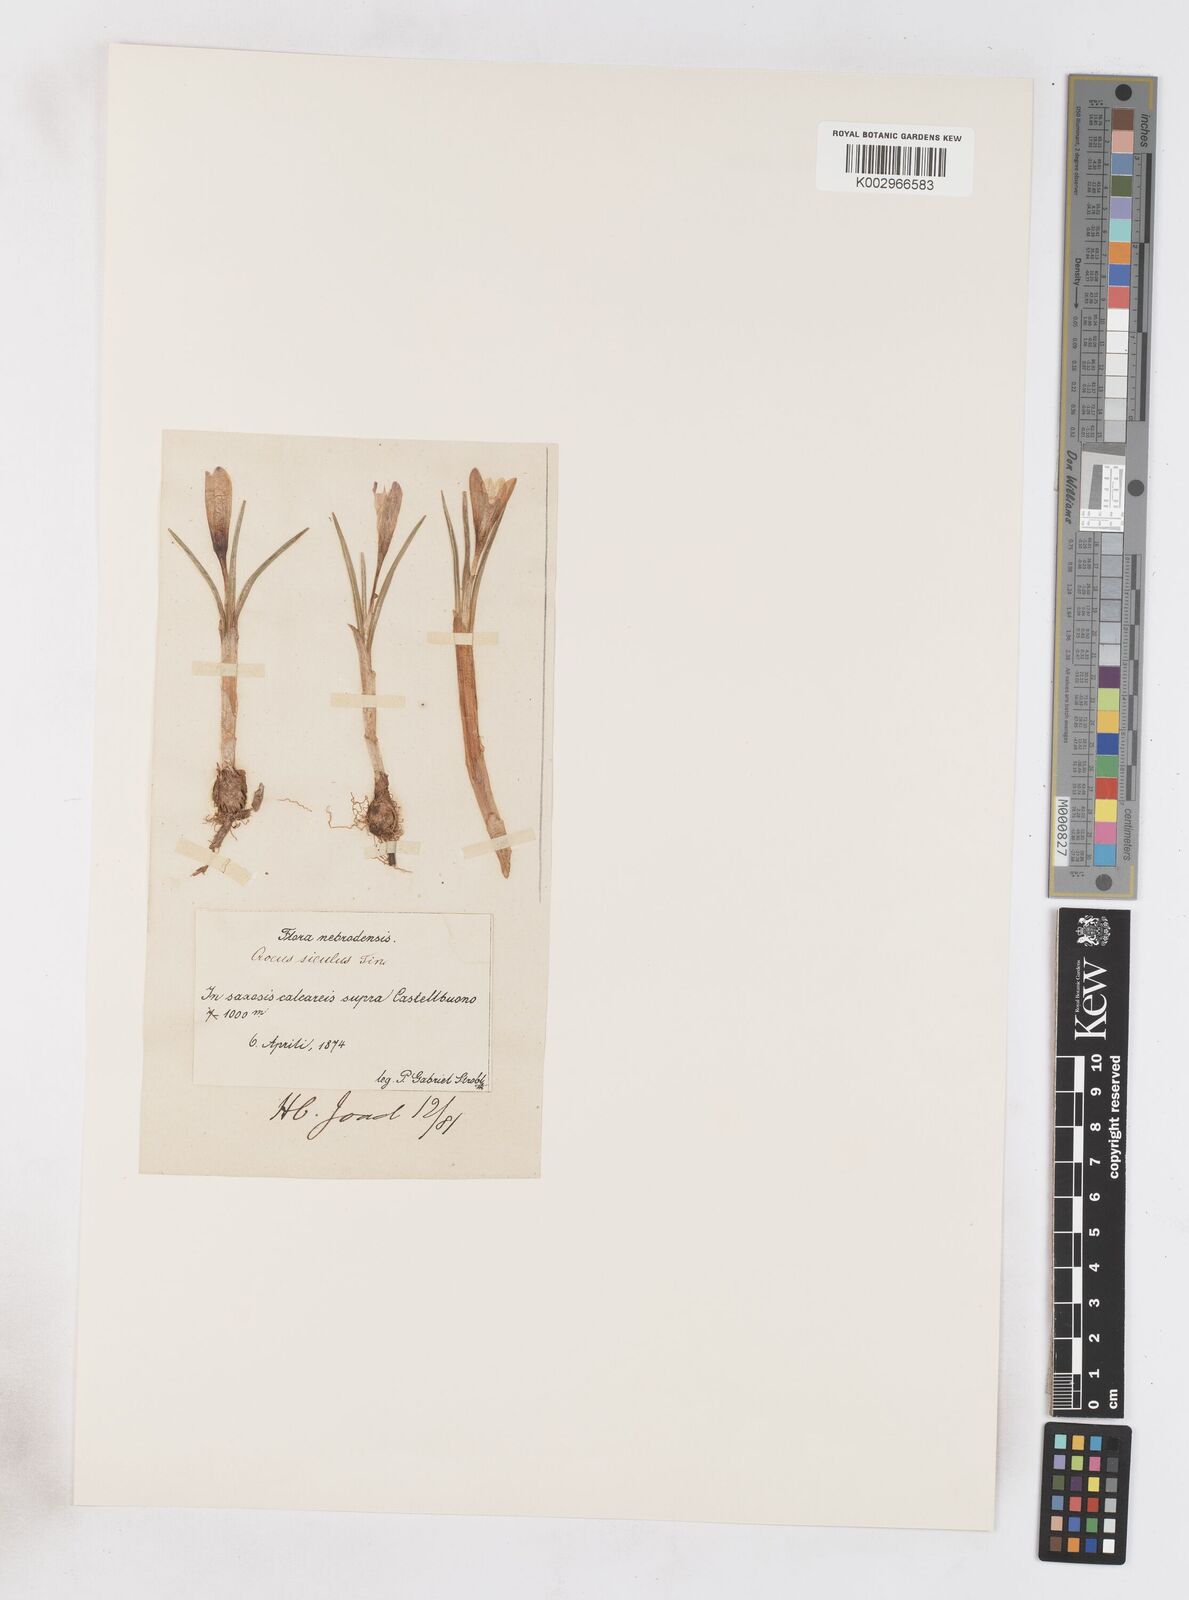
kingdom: Plantae
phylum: Tracheophyta
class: Liliopsida
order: Asparagales
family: Iridaceae
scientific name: Iridaceae
